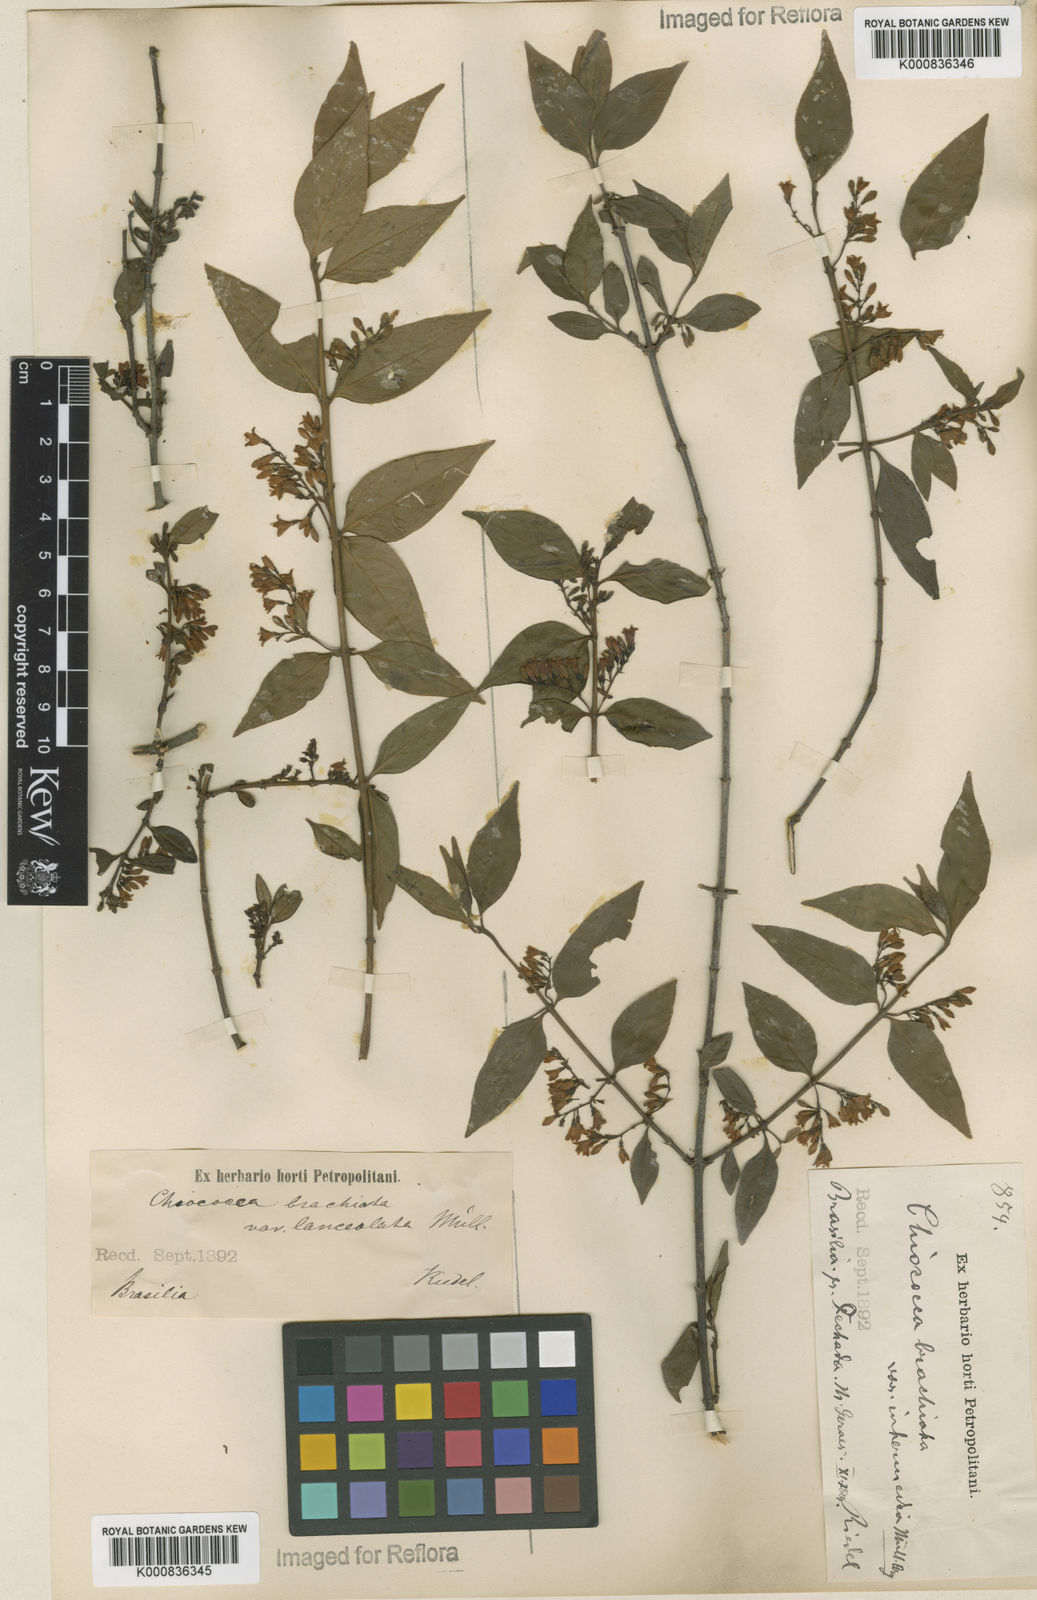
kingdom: Plantae
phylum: Tracheophyta
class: Magnoliopsida
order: Gentianales
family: Rubiaceae
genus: Chiococca
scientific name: Chiococca alba
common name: Snowberry
